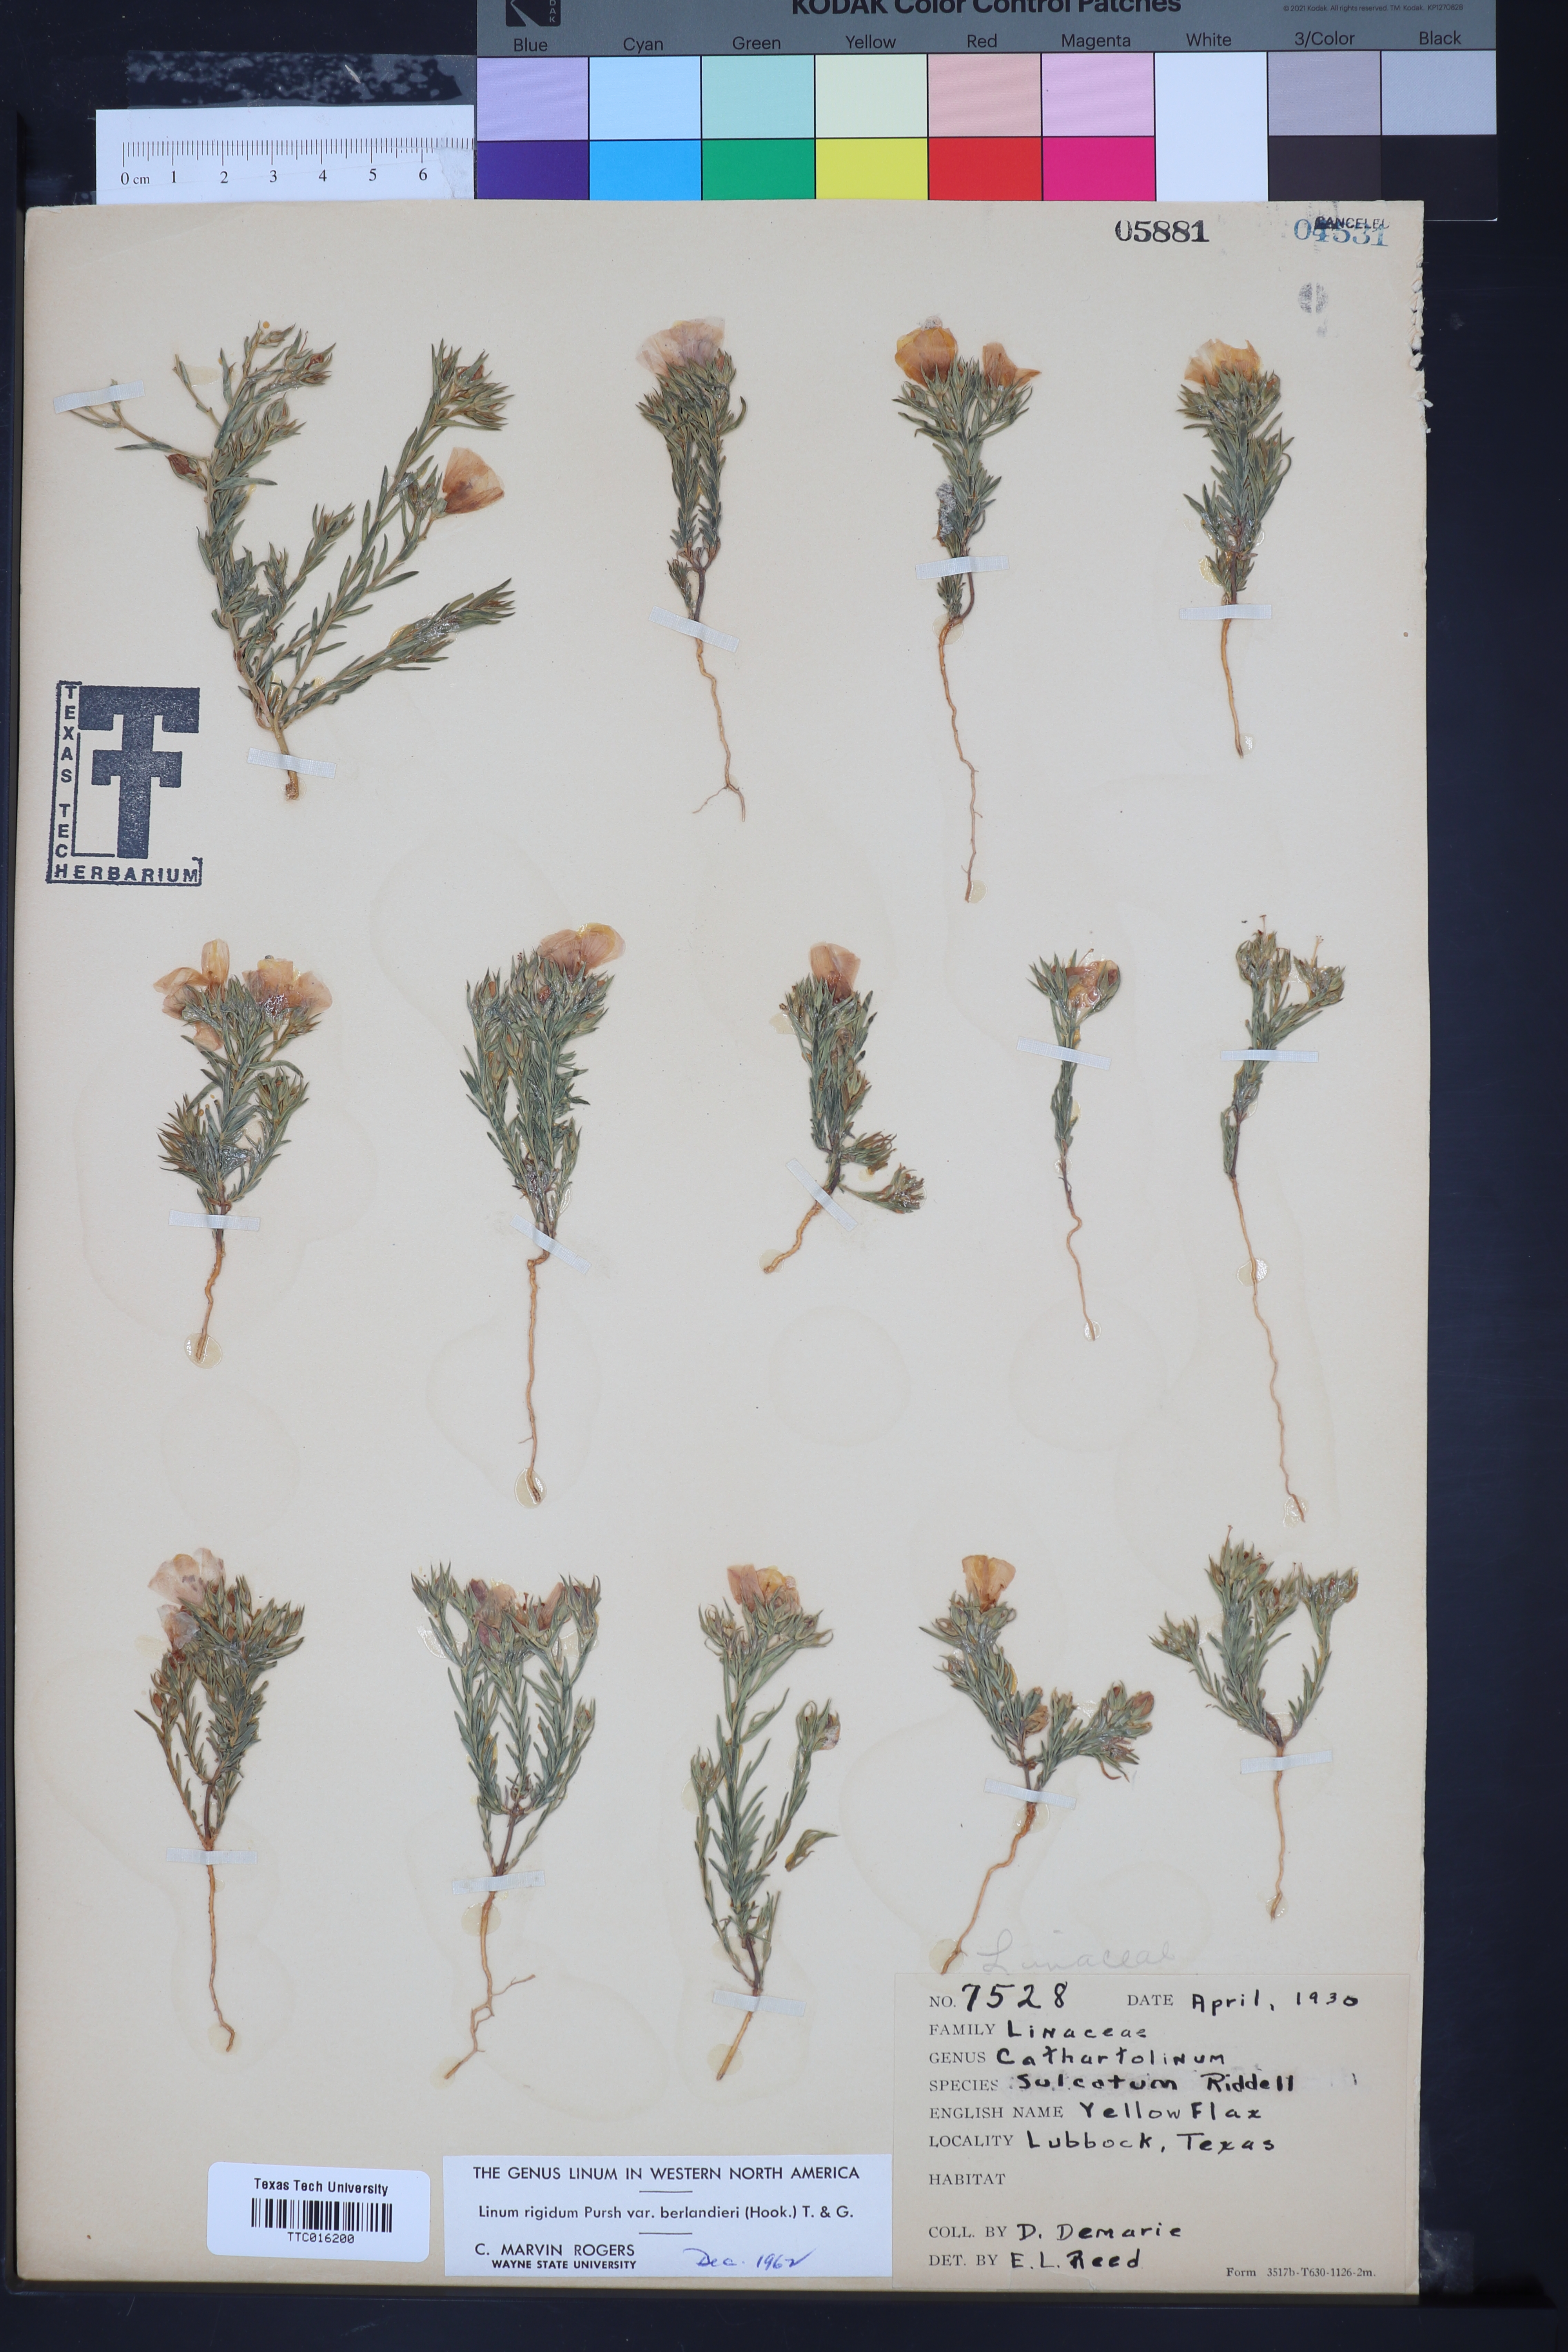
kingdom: Plantae
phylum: Tracheophyta
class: Magnoliopsida
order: Malpighiales
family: Linaceae
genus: Linum
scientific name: Linum berlandieri
